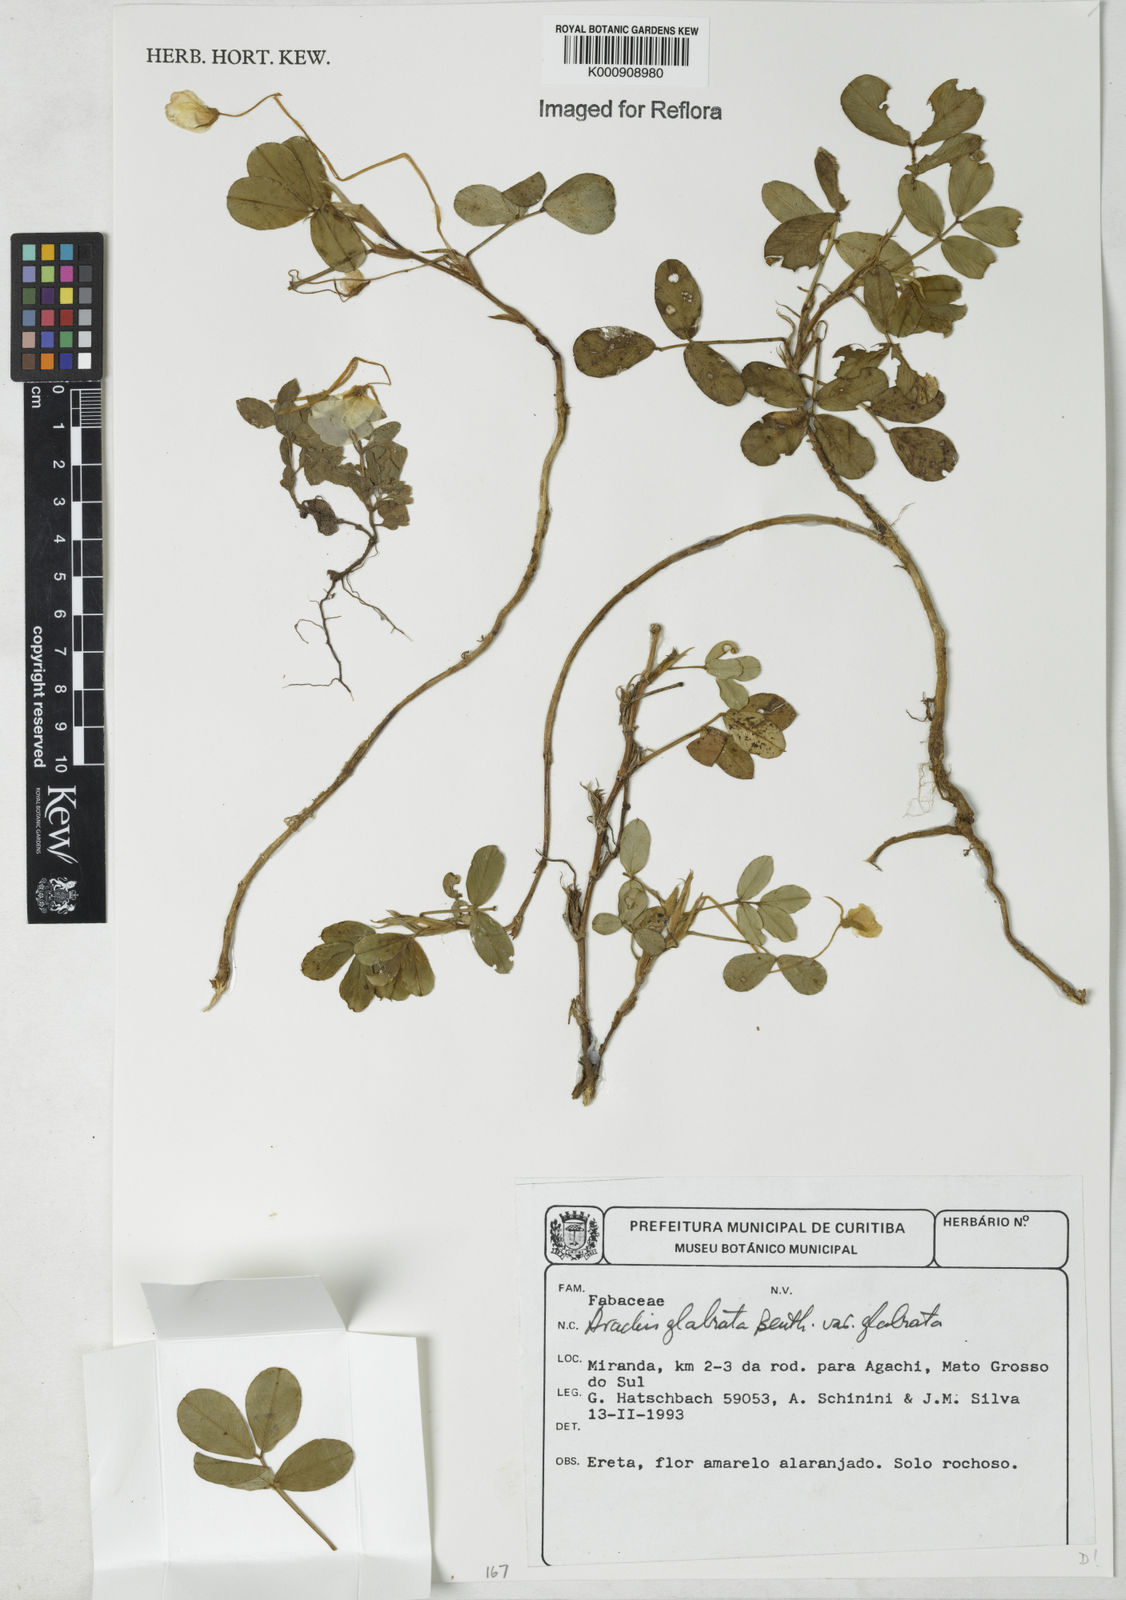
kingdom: Plantae
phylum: Tracheophyta
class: Magnoliopsida
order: Fabales
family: Fabaceae
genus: Arachis
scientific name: Arachis glabrata
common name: Rhizoma peanut
